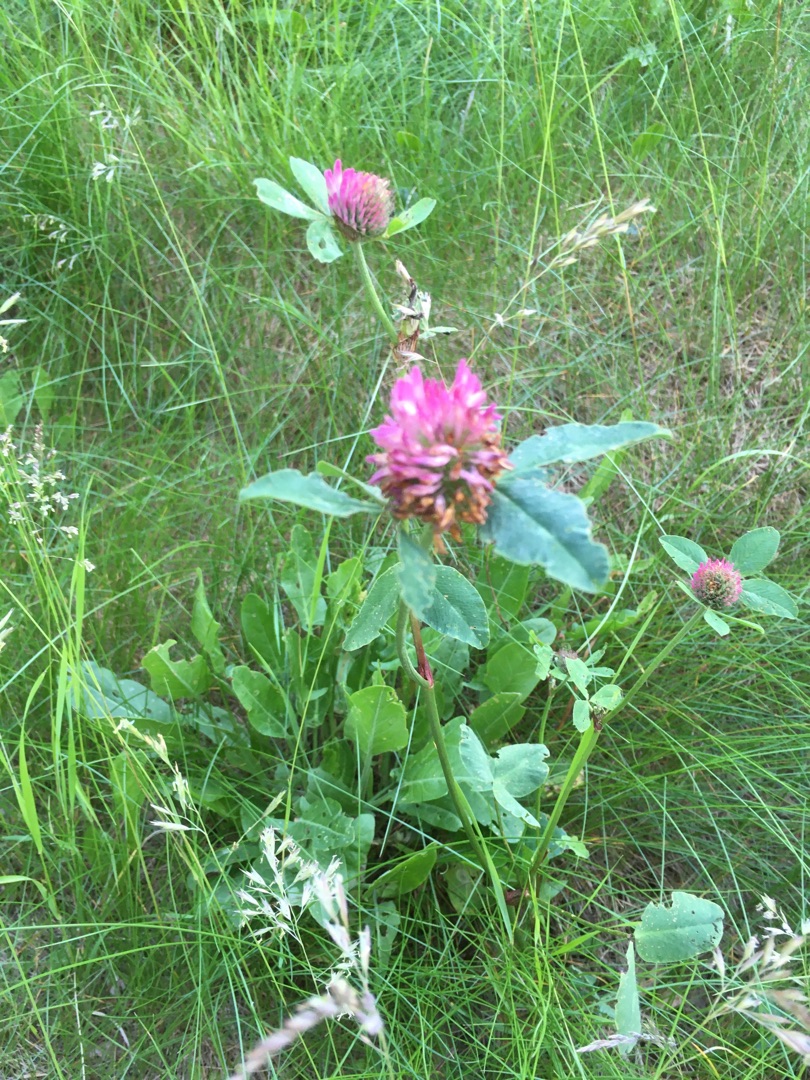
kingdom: Plantae
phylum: Tracheophyta
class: Magnoliopsida
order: Fabales
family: Fabaceae
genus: Trifolium
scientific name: Trifolium pratense
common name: Rød-kløver
